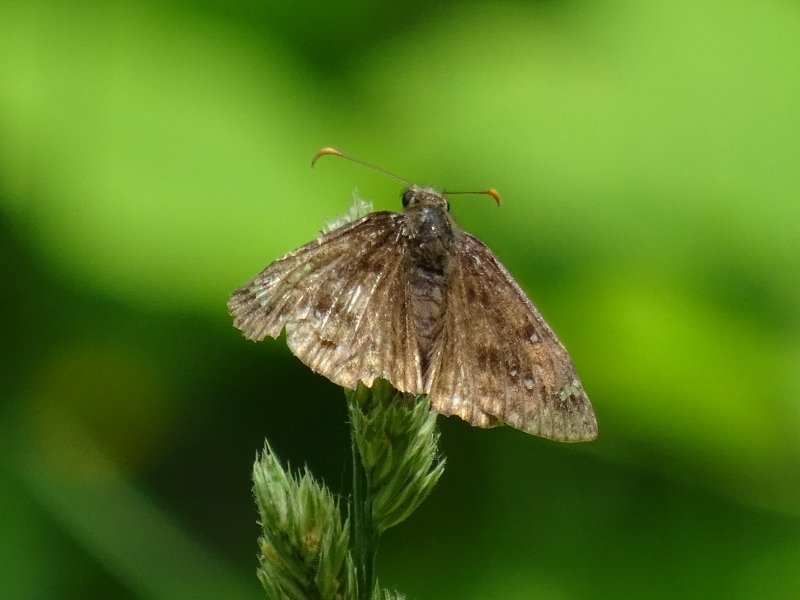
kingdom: Animalia
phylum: Arthropoda
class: Insecta
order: Lepidoptera
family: Hesperiidae
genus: Gesta
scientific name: Gesta
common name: Juvenal's Duskywing
